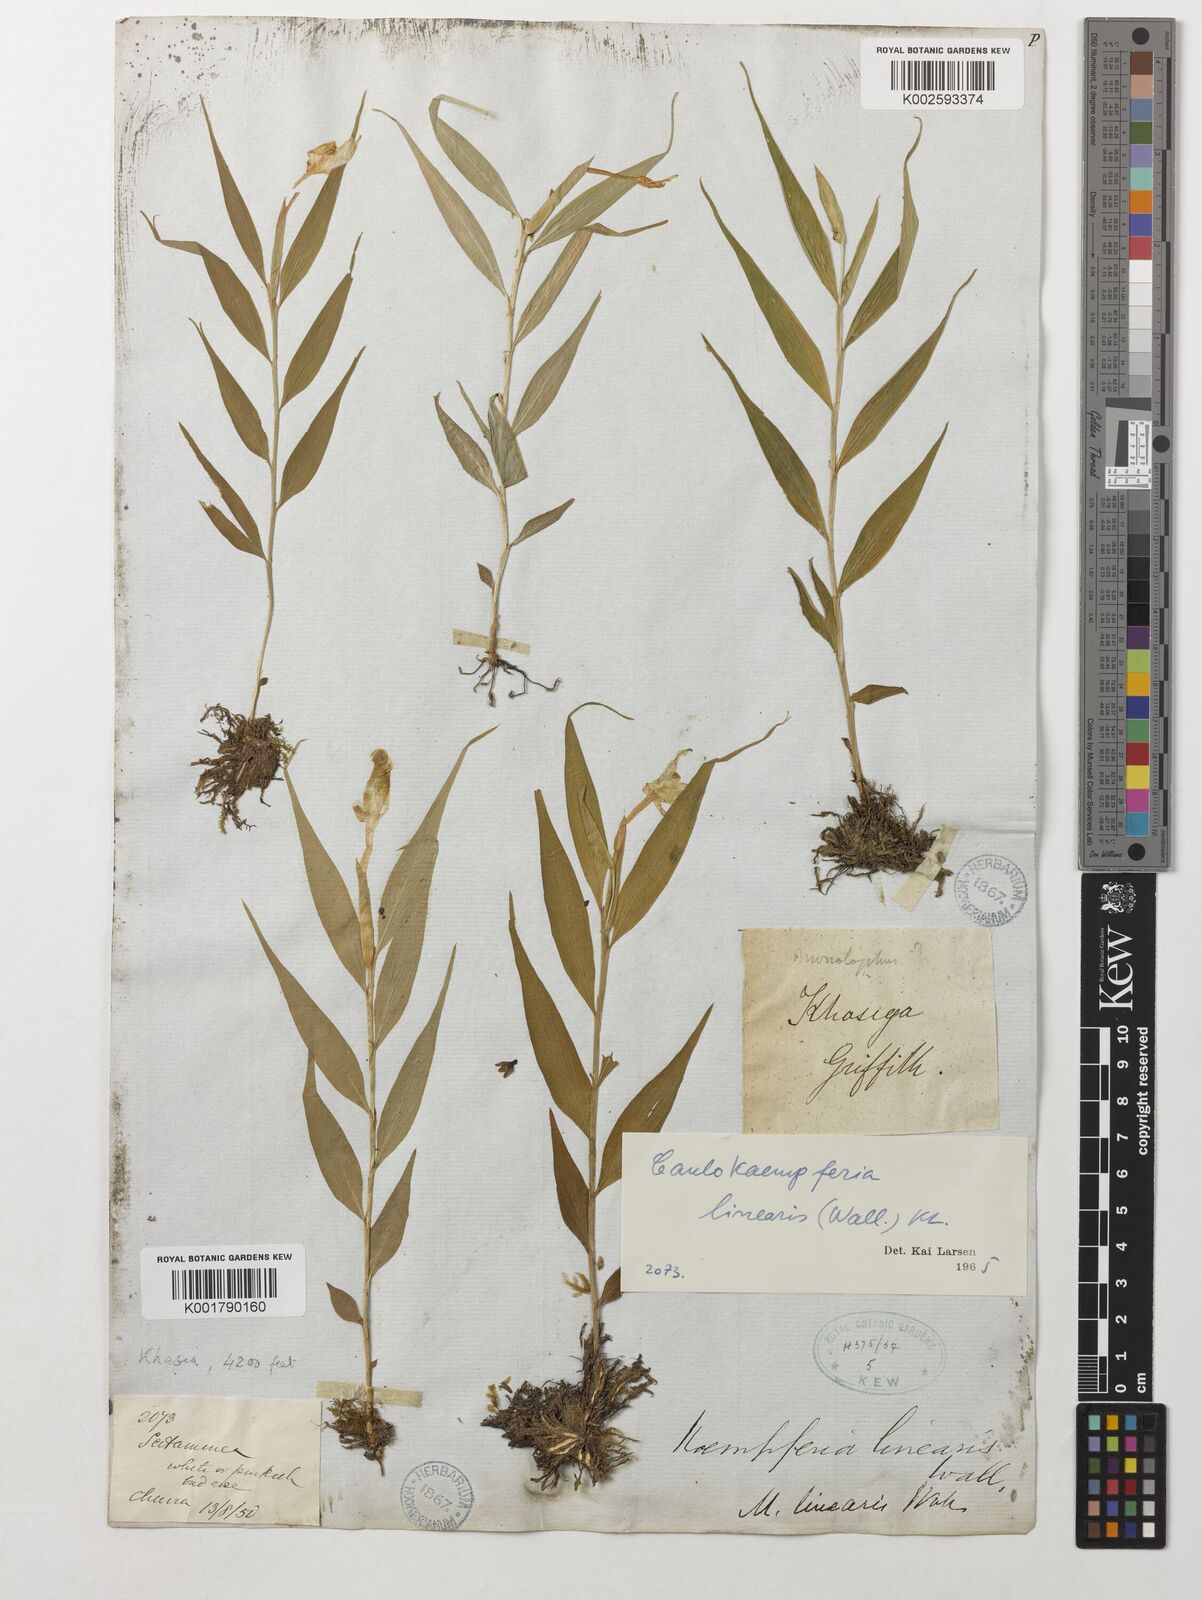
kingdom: Plantae
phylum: Tracheophyta
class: Liliopsida
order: Zingiberales
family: Zingiberaceae
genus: Caulokaempferia
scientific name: Caulokaempferia linearis
